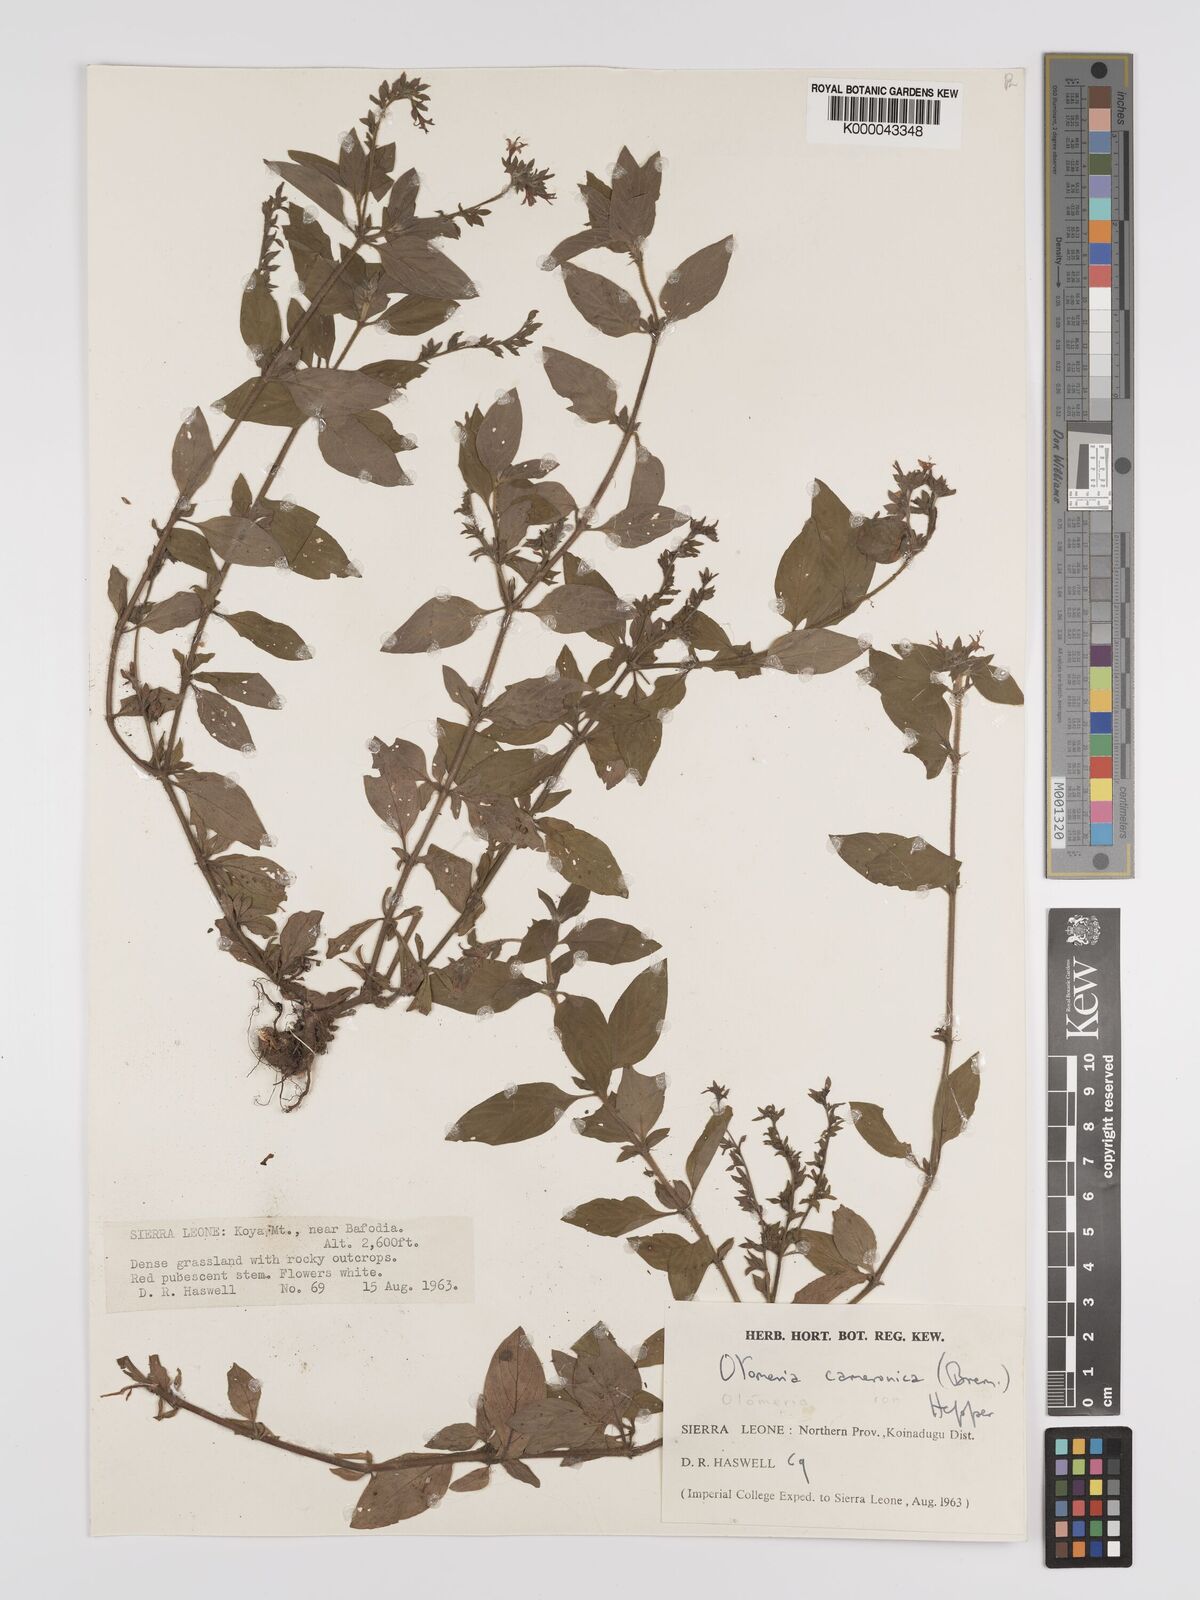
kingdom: Plantae
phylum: Tracheophyta
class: Magnoliopsida
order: Gentianales
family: Rubiaceae
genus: Otomeria
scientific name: Otomeria cameronica
